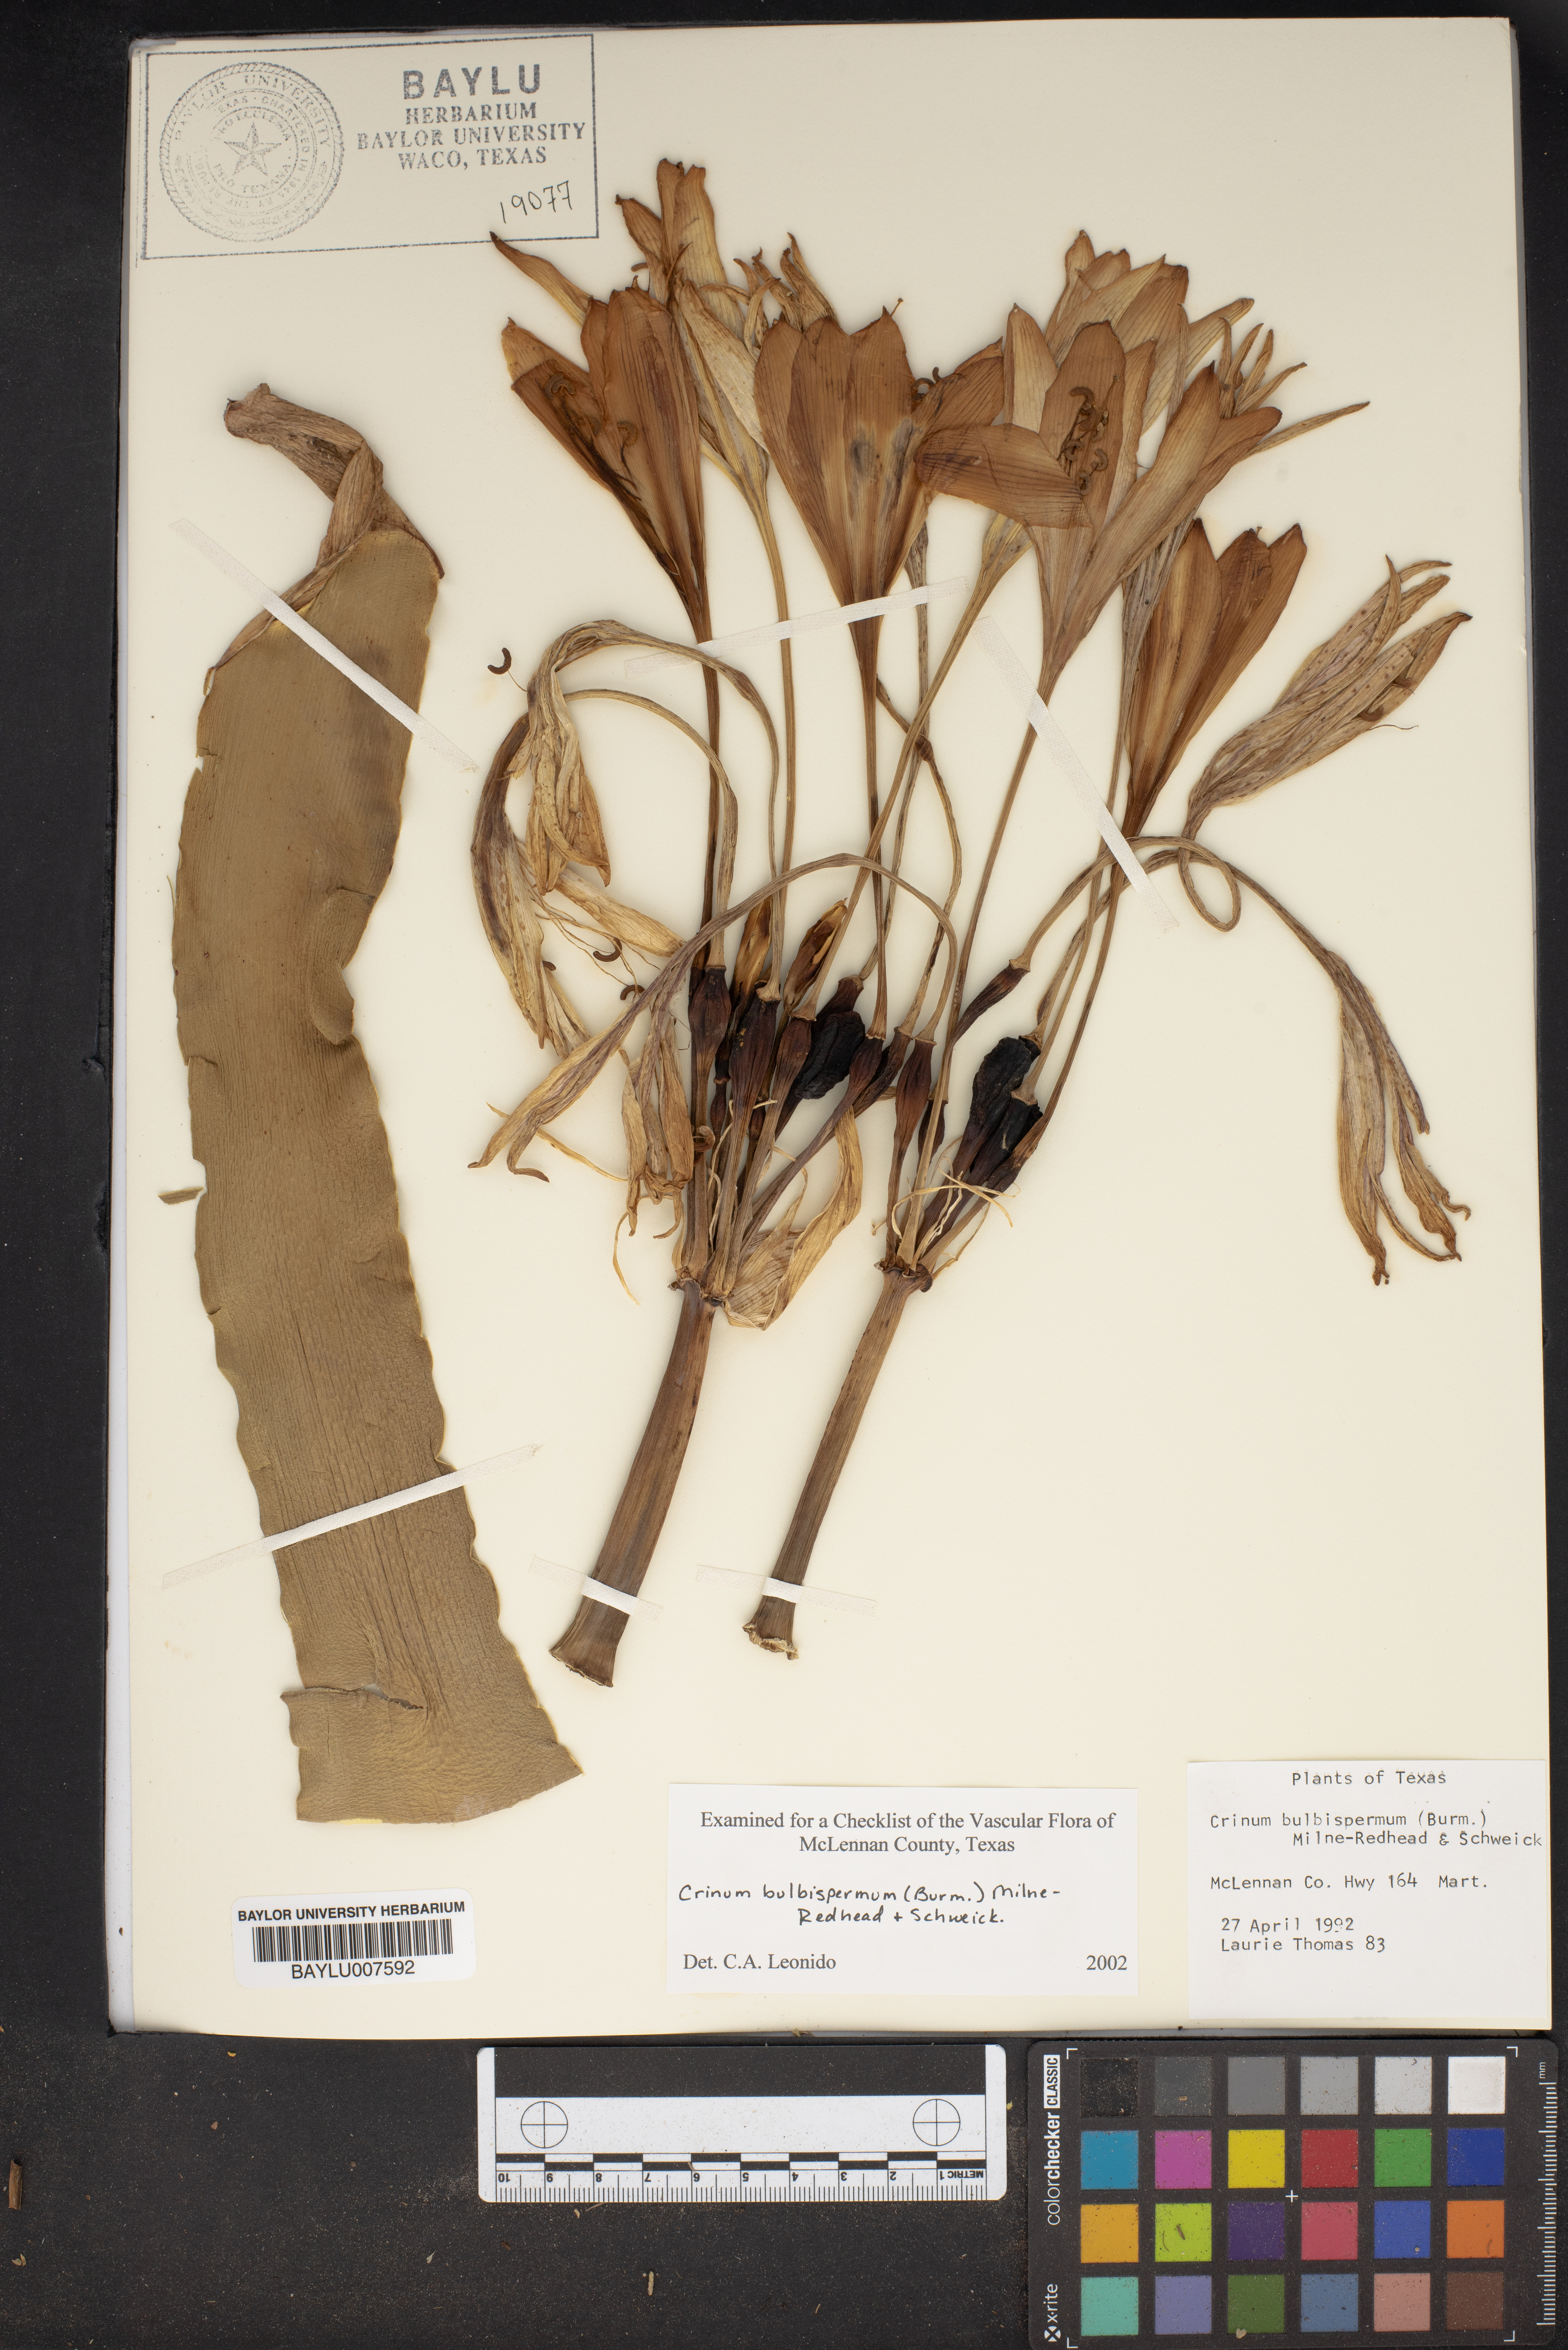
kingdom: Plantae
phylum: Tracheophyta
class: Liliopsida
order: Asparagales
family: Amaryllidaceae
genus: Crinum
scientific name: Crinum bulbispermum
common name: Hardy swamplily
